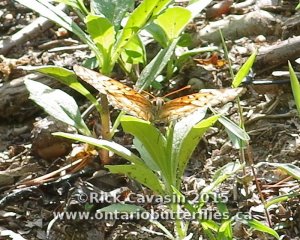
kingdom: Animalia
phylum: Arthropoda
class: Insecta
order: Lepidoptera
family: Nymphalidae
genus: Euptoieta
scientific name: Euptoieta claudia
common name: Variegated Fritillary
